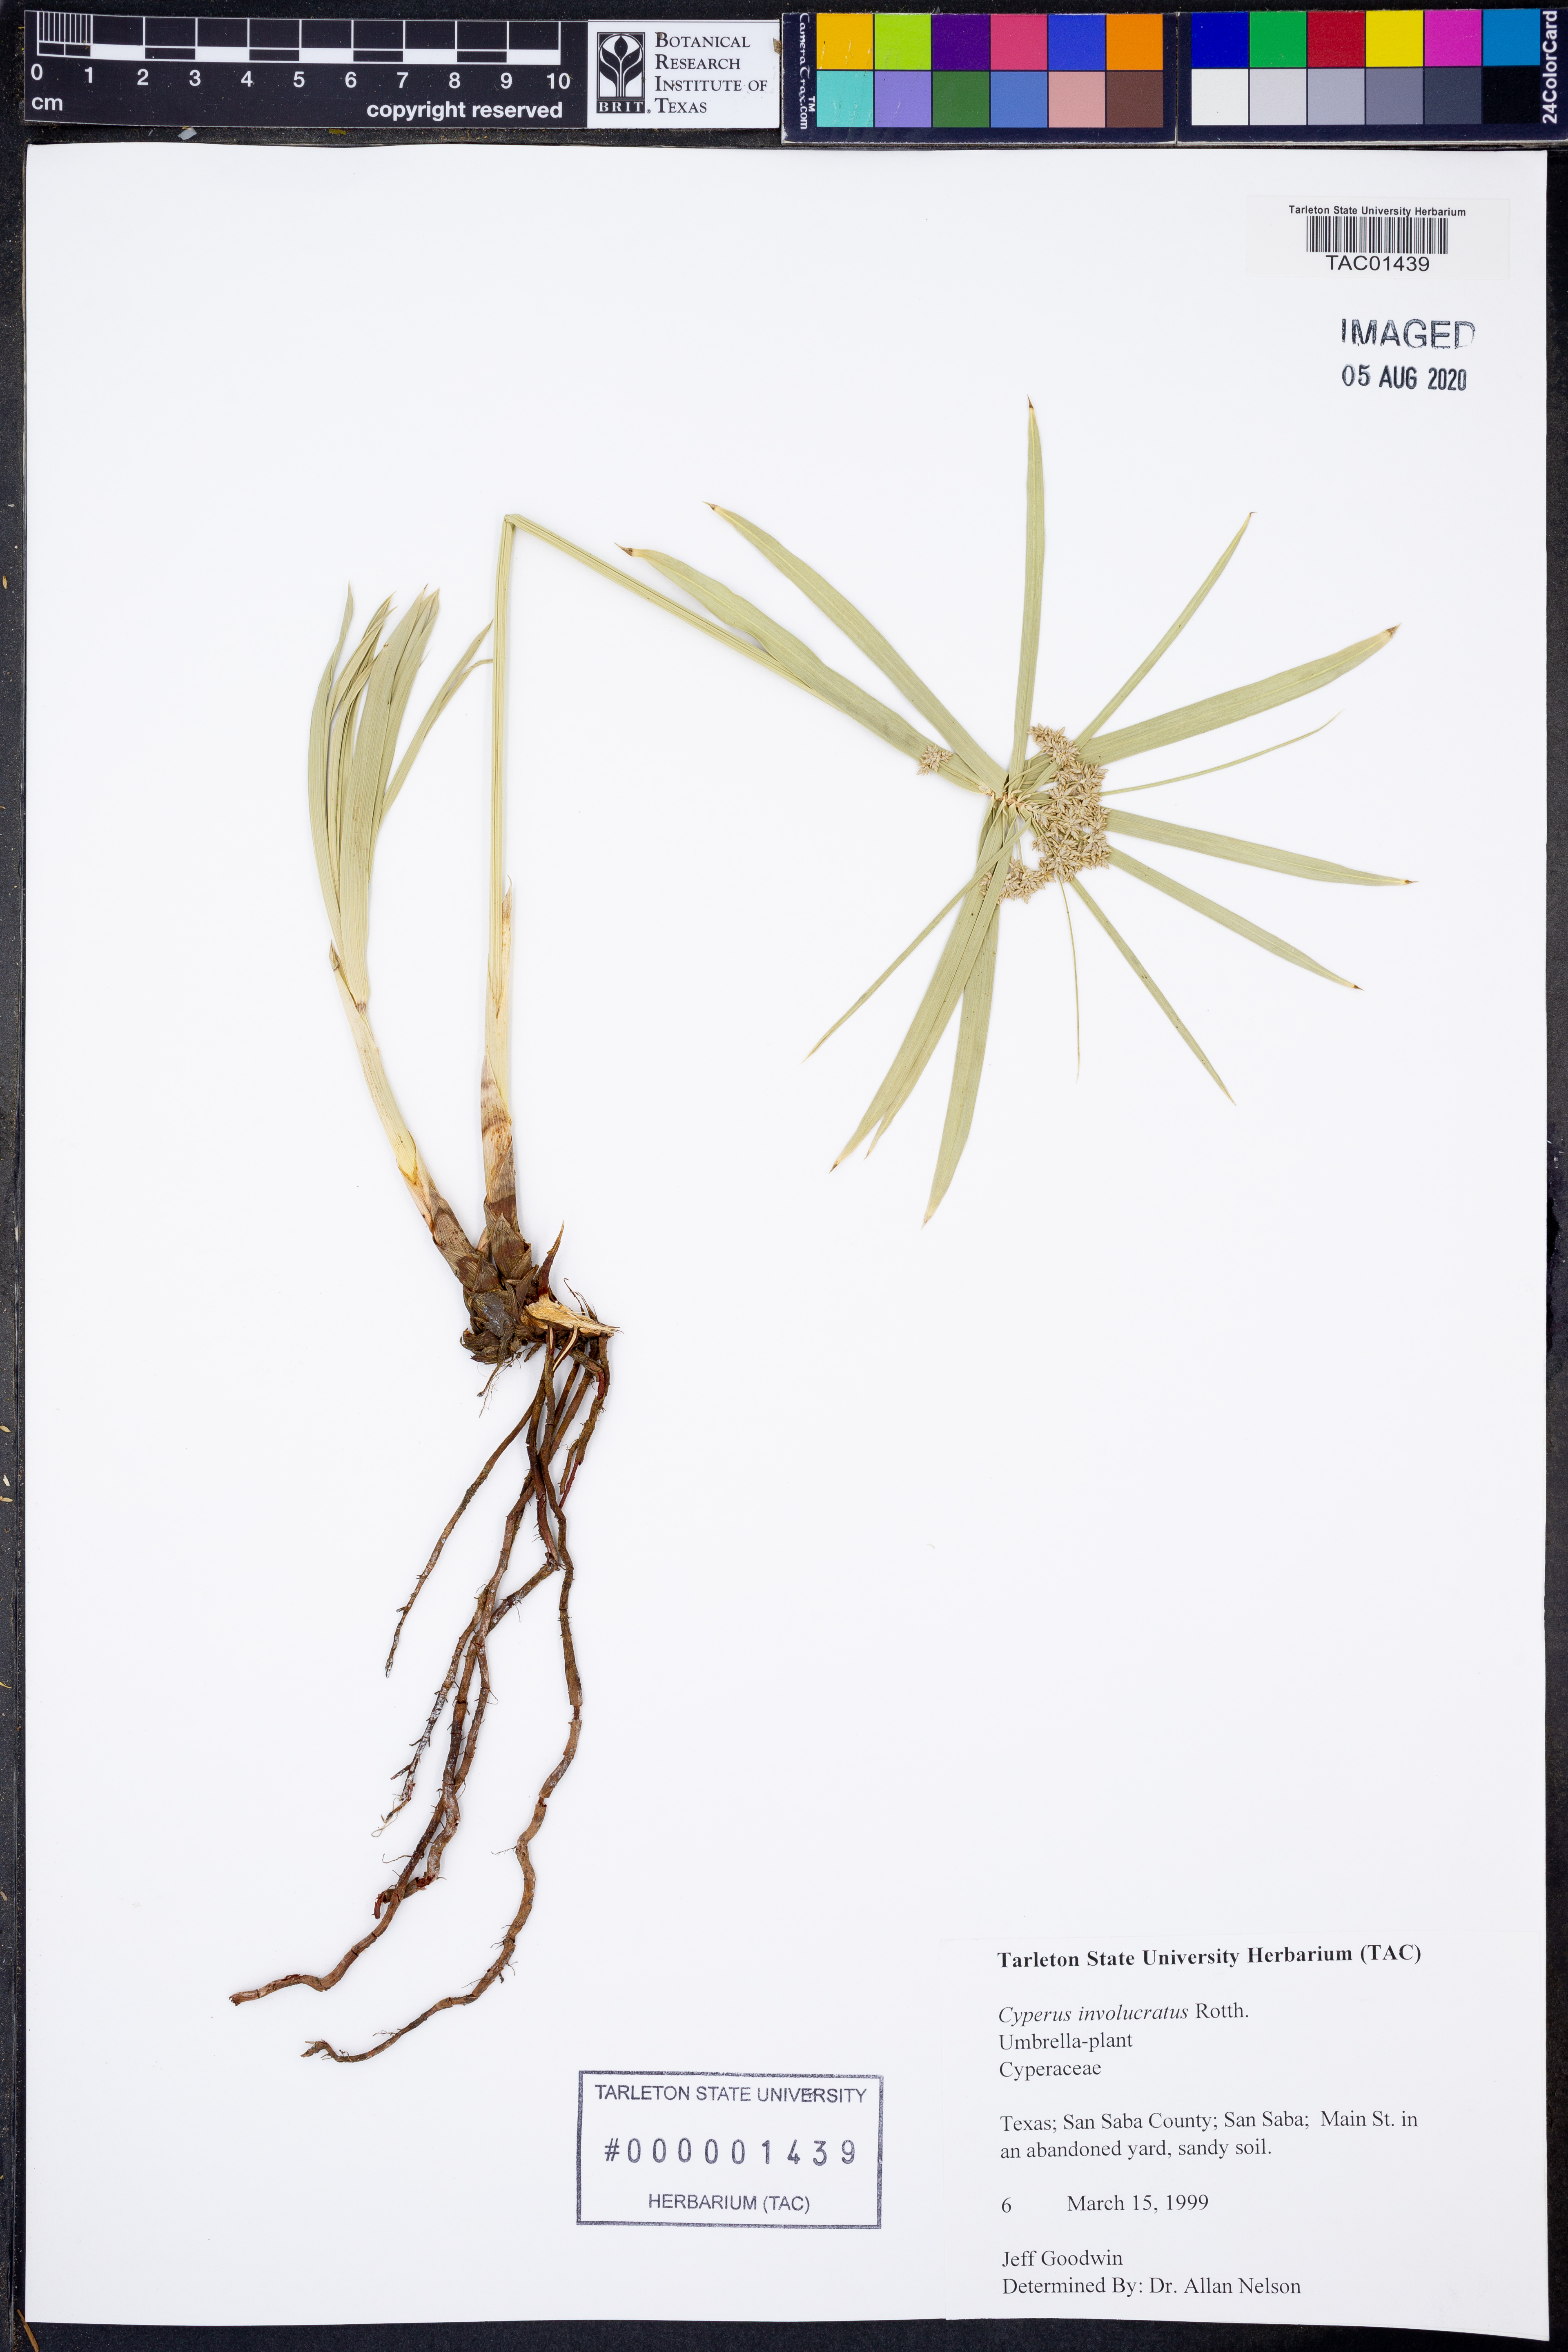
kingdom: Plantae
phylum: Tracheophyta
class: Liliopsida
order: Poales
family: Cyperaceae
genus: Cyperus
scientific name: Cyperus alternifolius
